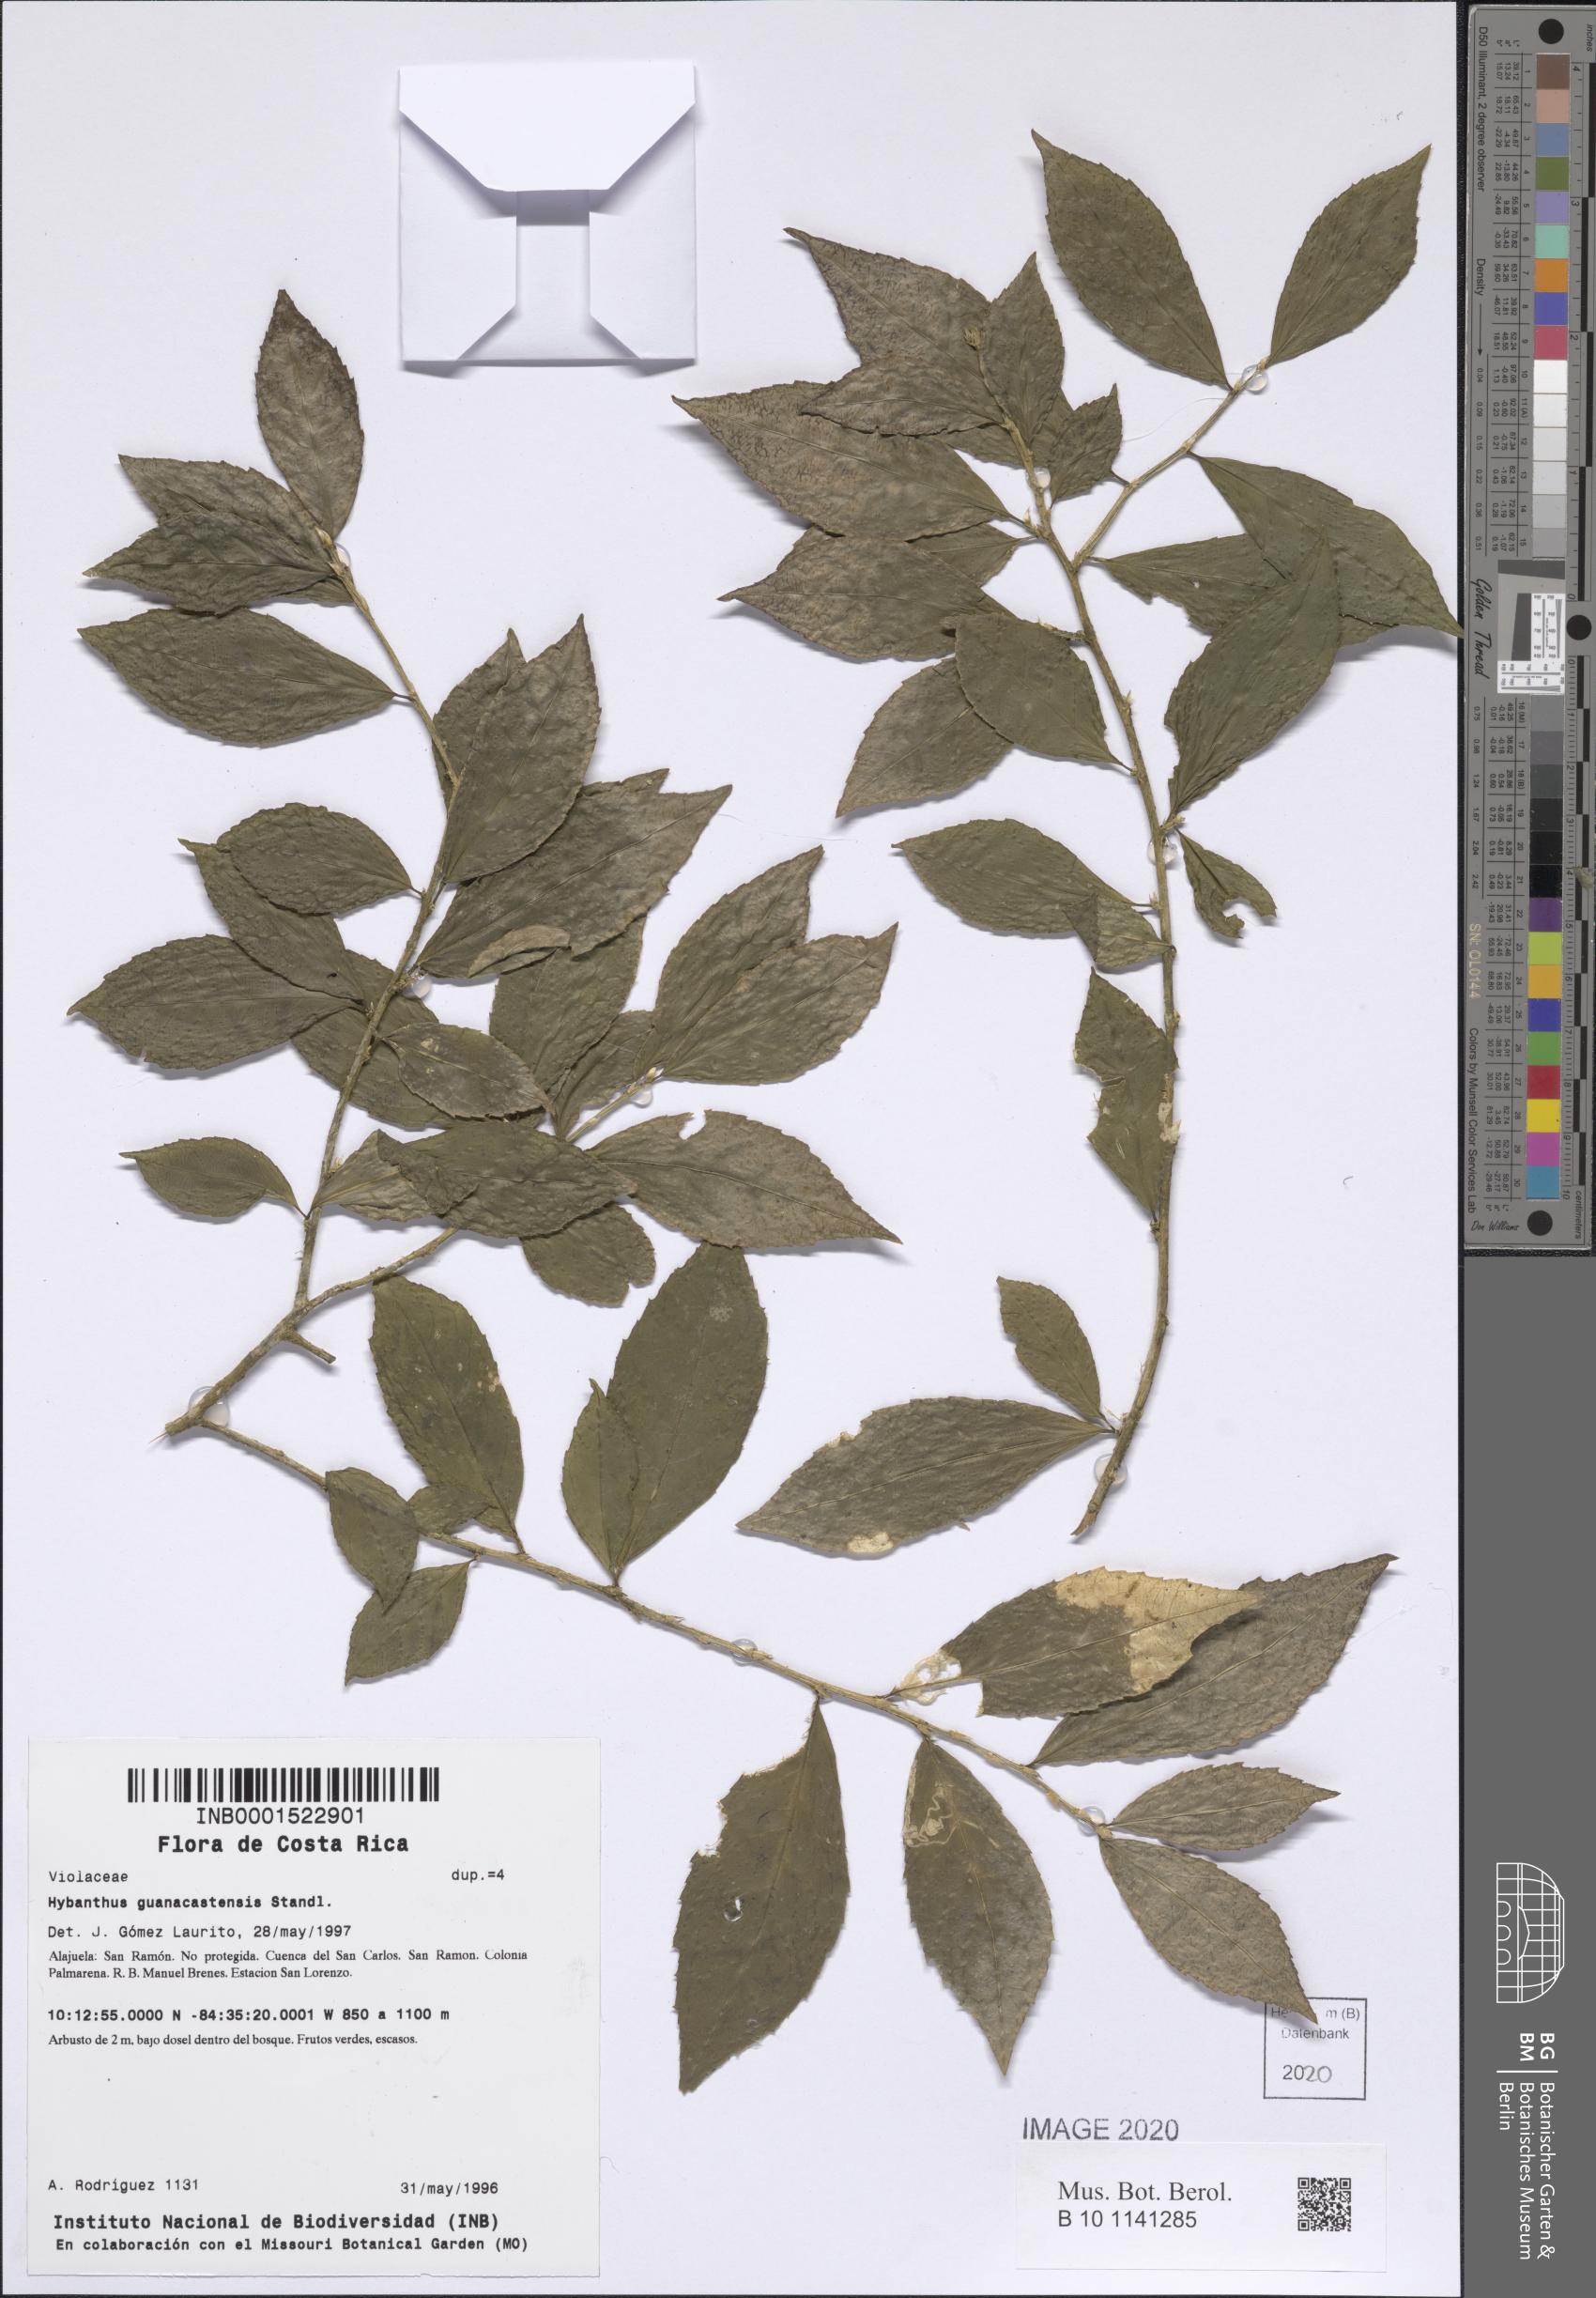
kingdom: Plantae
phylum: Tracheophyta
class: Magnoliopsida
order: Malpighiales
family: Violaceae
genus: Hybanthus
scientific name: Hybanthus guanacastensis
